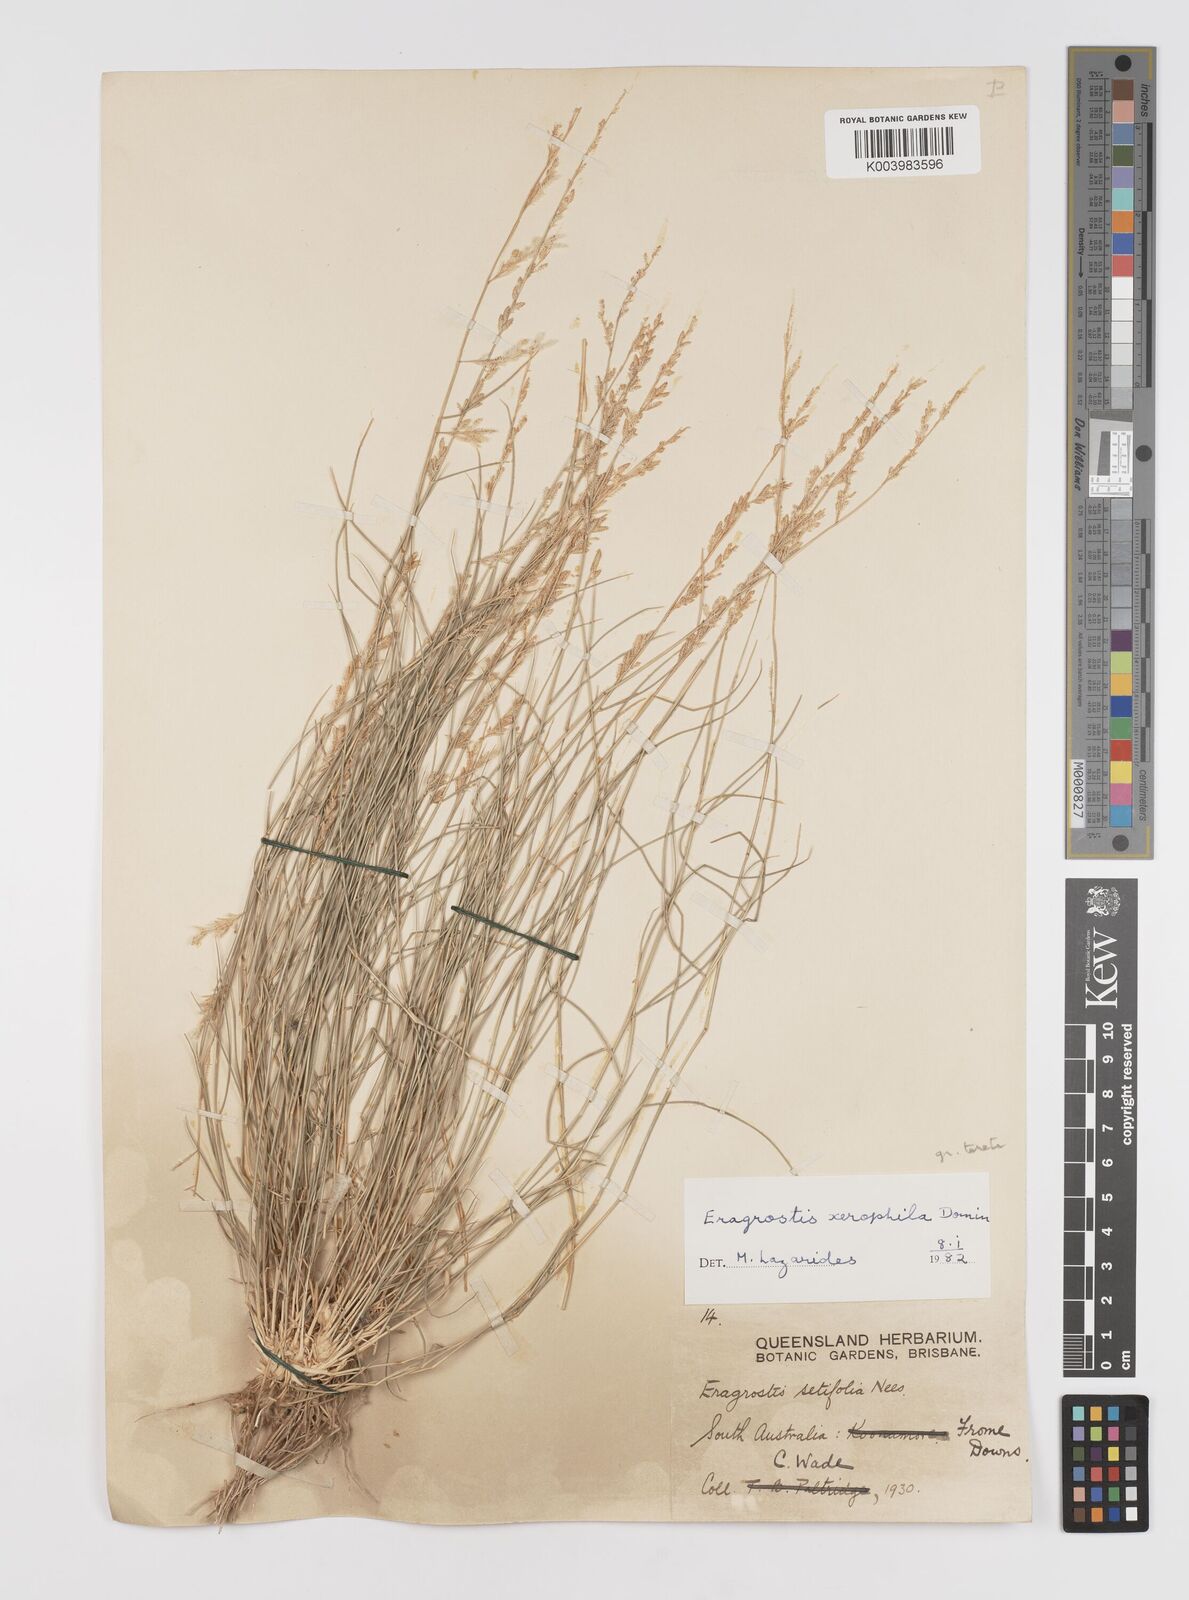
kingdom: Plantae
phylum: Tracheophyta
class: Liliopsida
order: Poales
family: Poaceae
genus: Eragrostis
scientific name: Eragrostis xerophila
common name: Wire wandarrie grass
